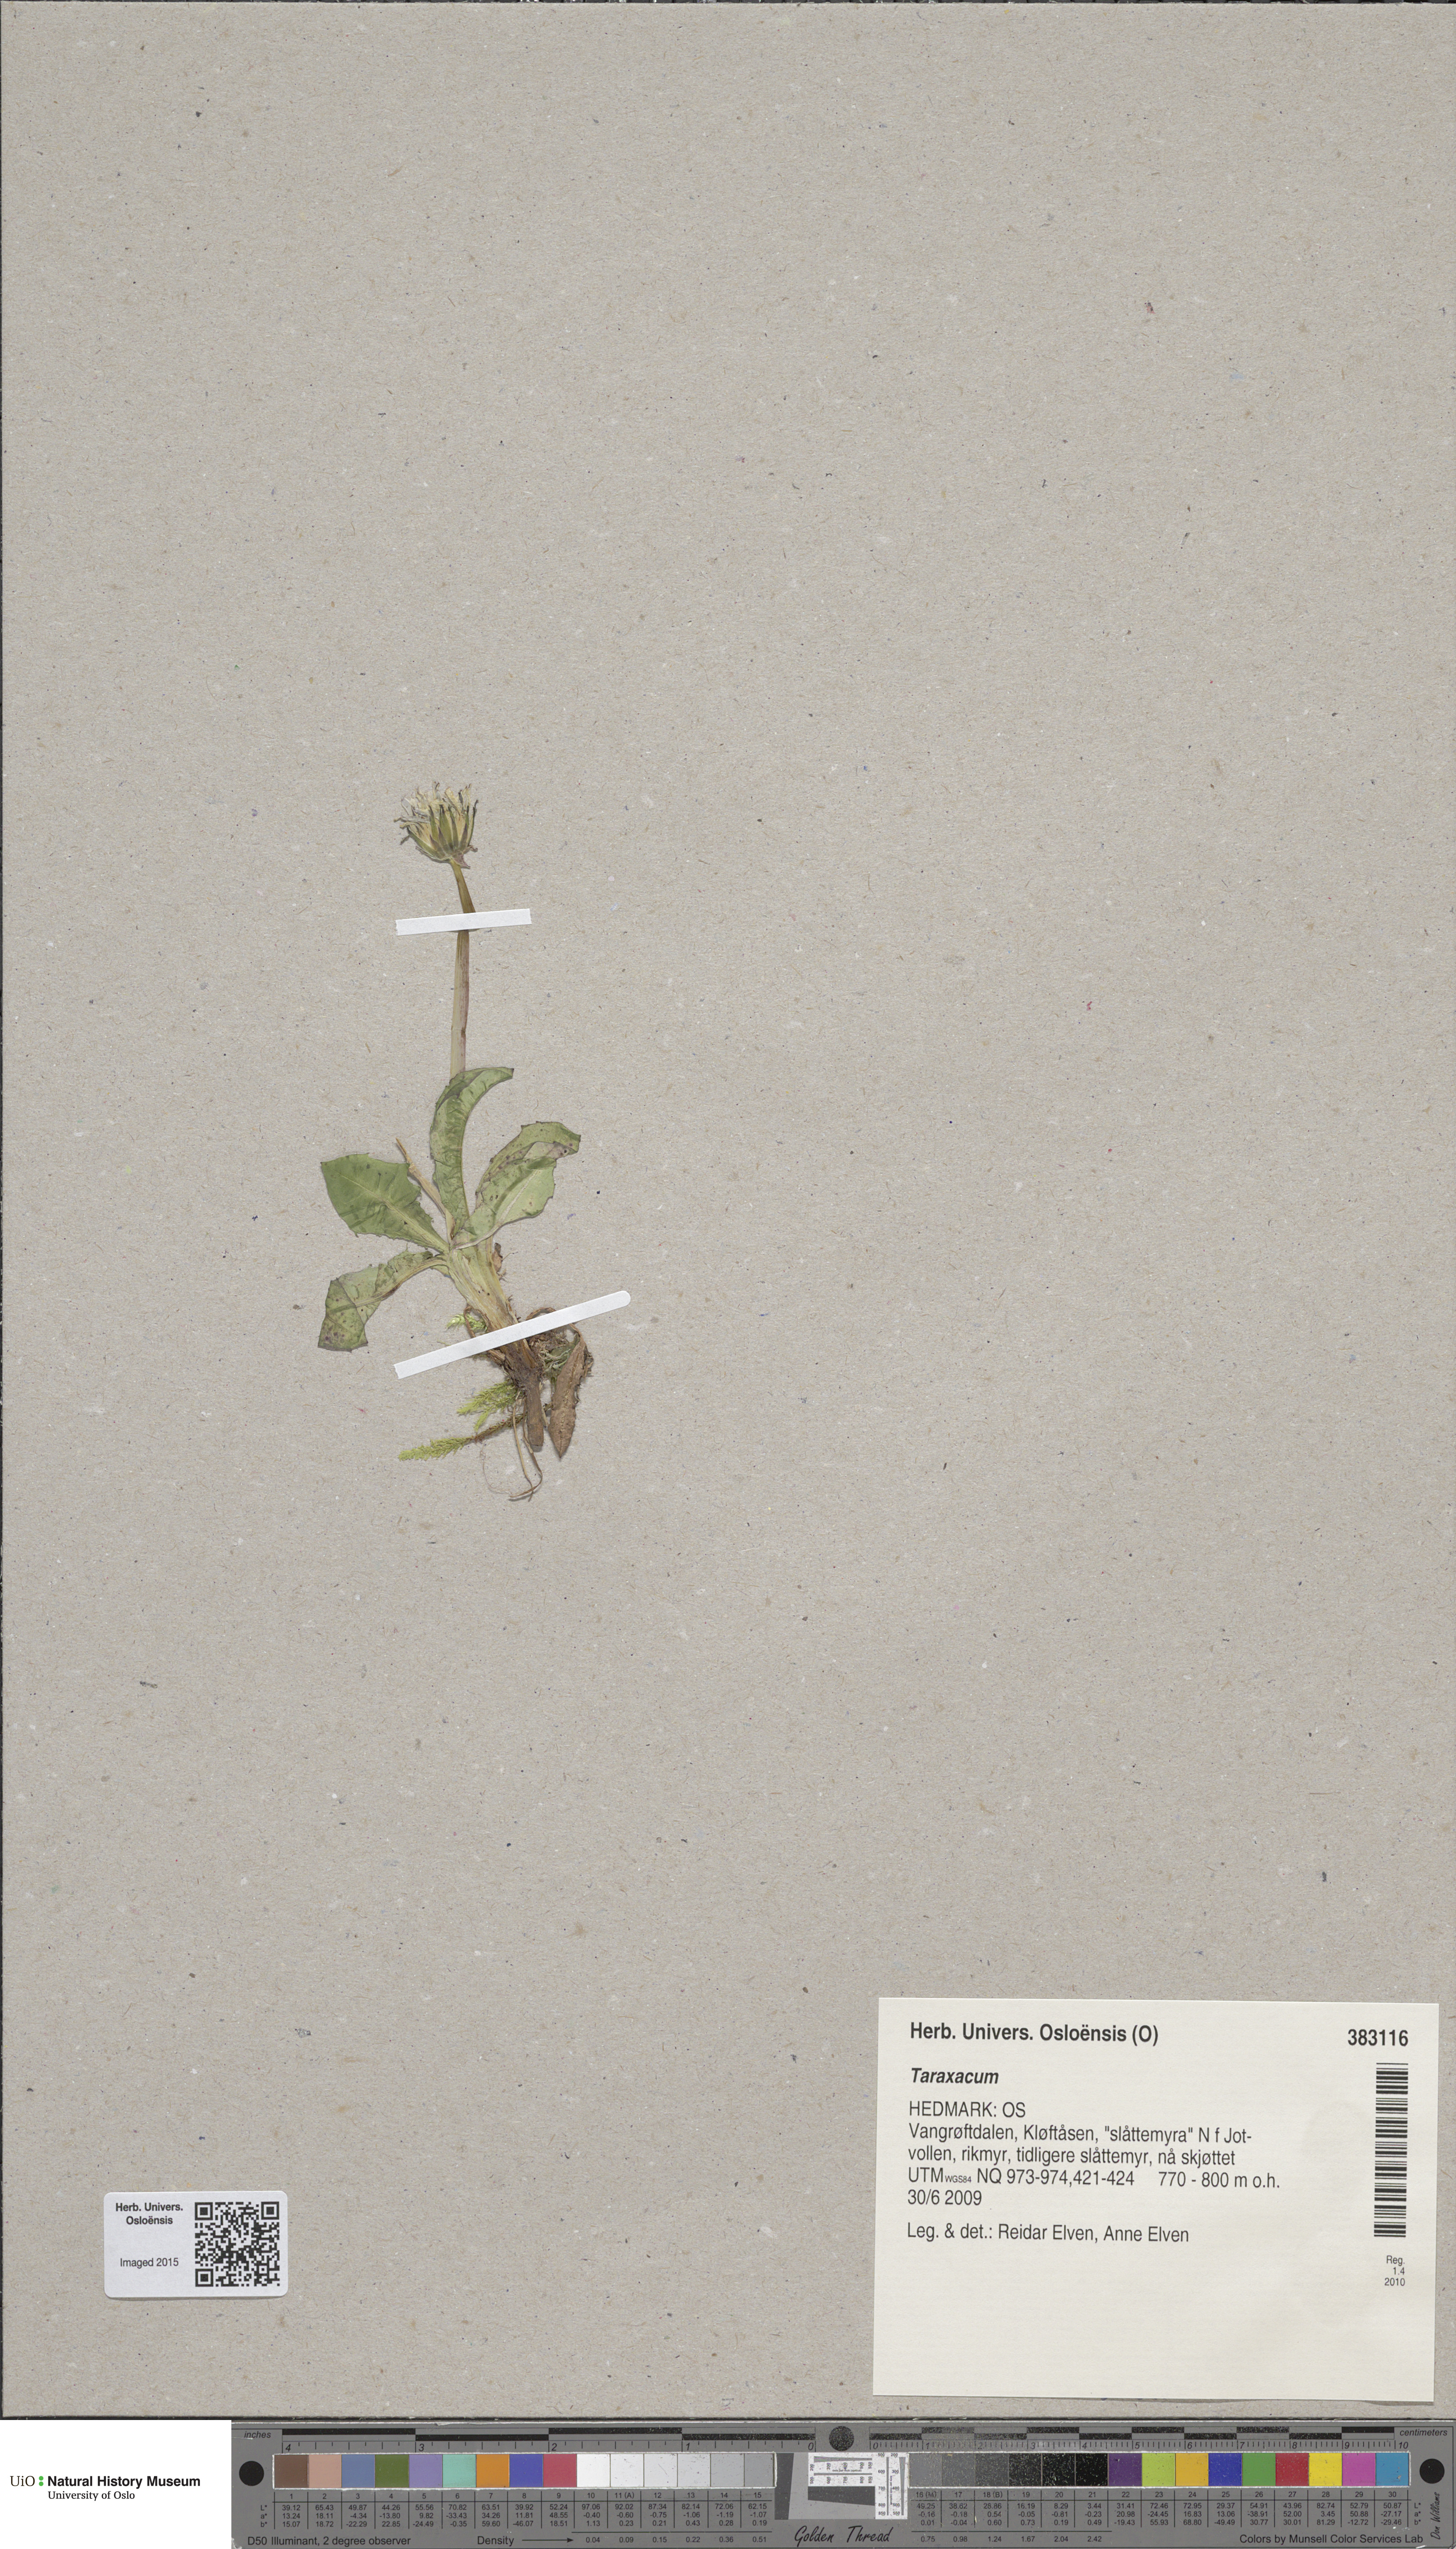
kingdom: Plantae
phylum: Tracheophyta
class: Magnoliopsida
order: Asterales
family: Asteraceae
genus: Taraxacum
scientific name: Taraxacum
